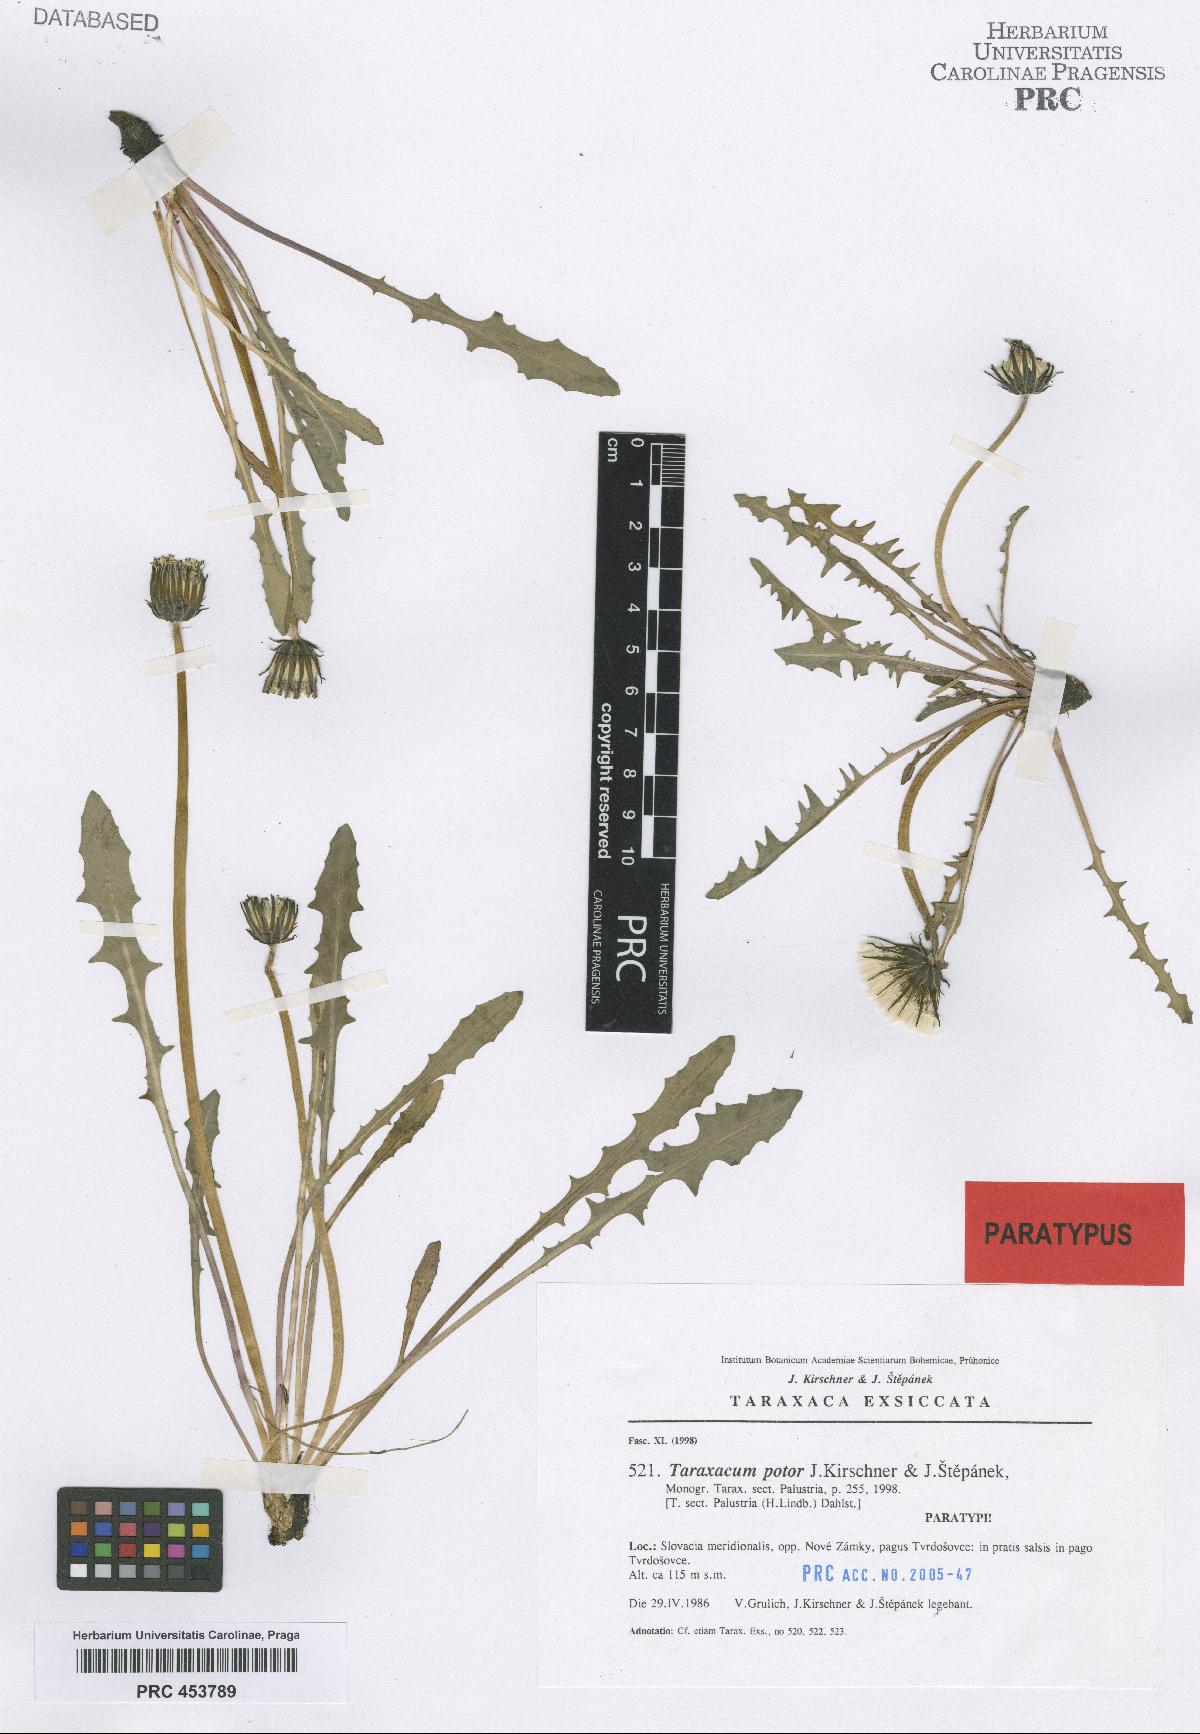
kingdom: Plantae
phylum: Tracheophyta
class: Magnoliopsida
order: Asterales
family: Asteraceae
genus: Taraxacum
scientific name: Taraxacum potor
